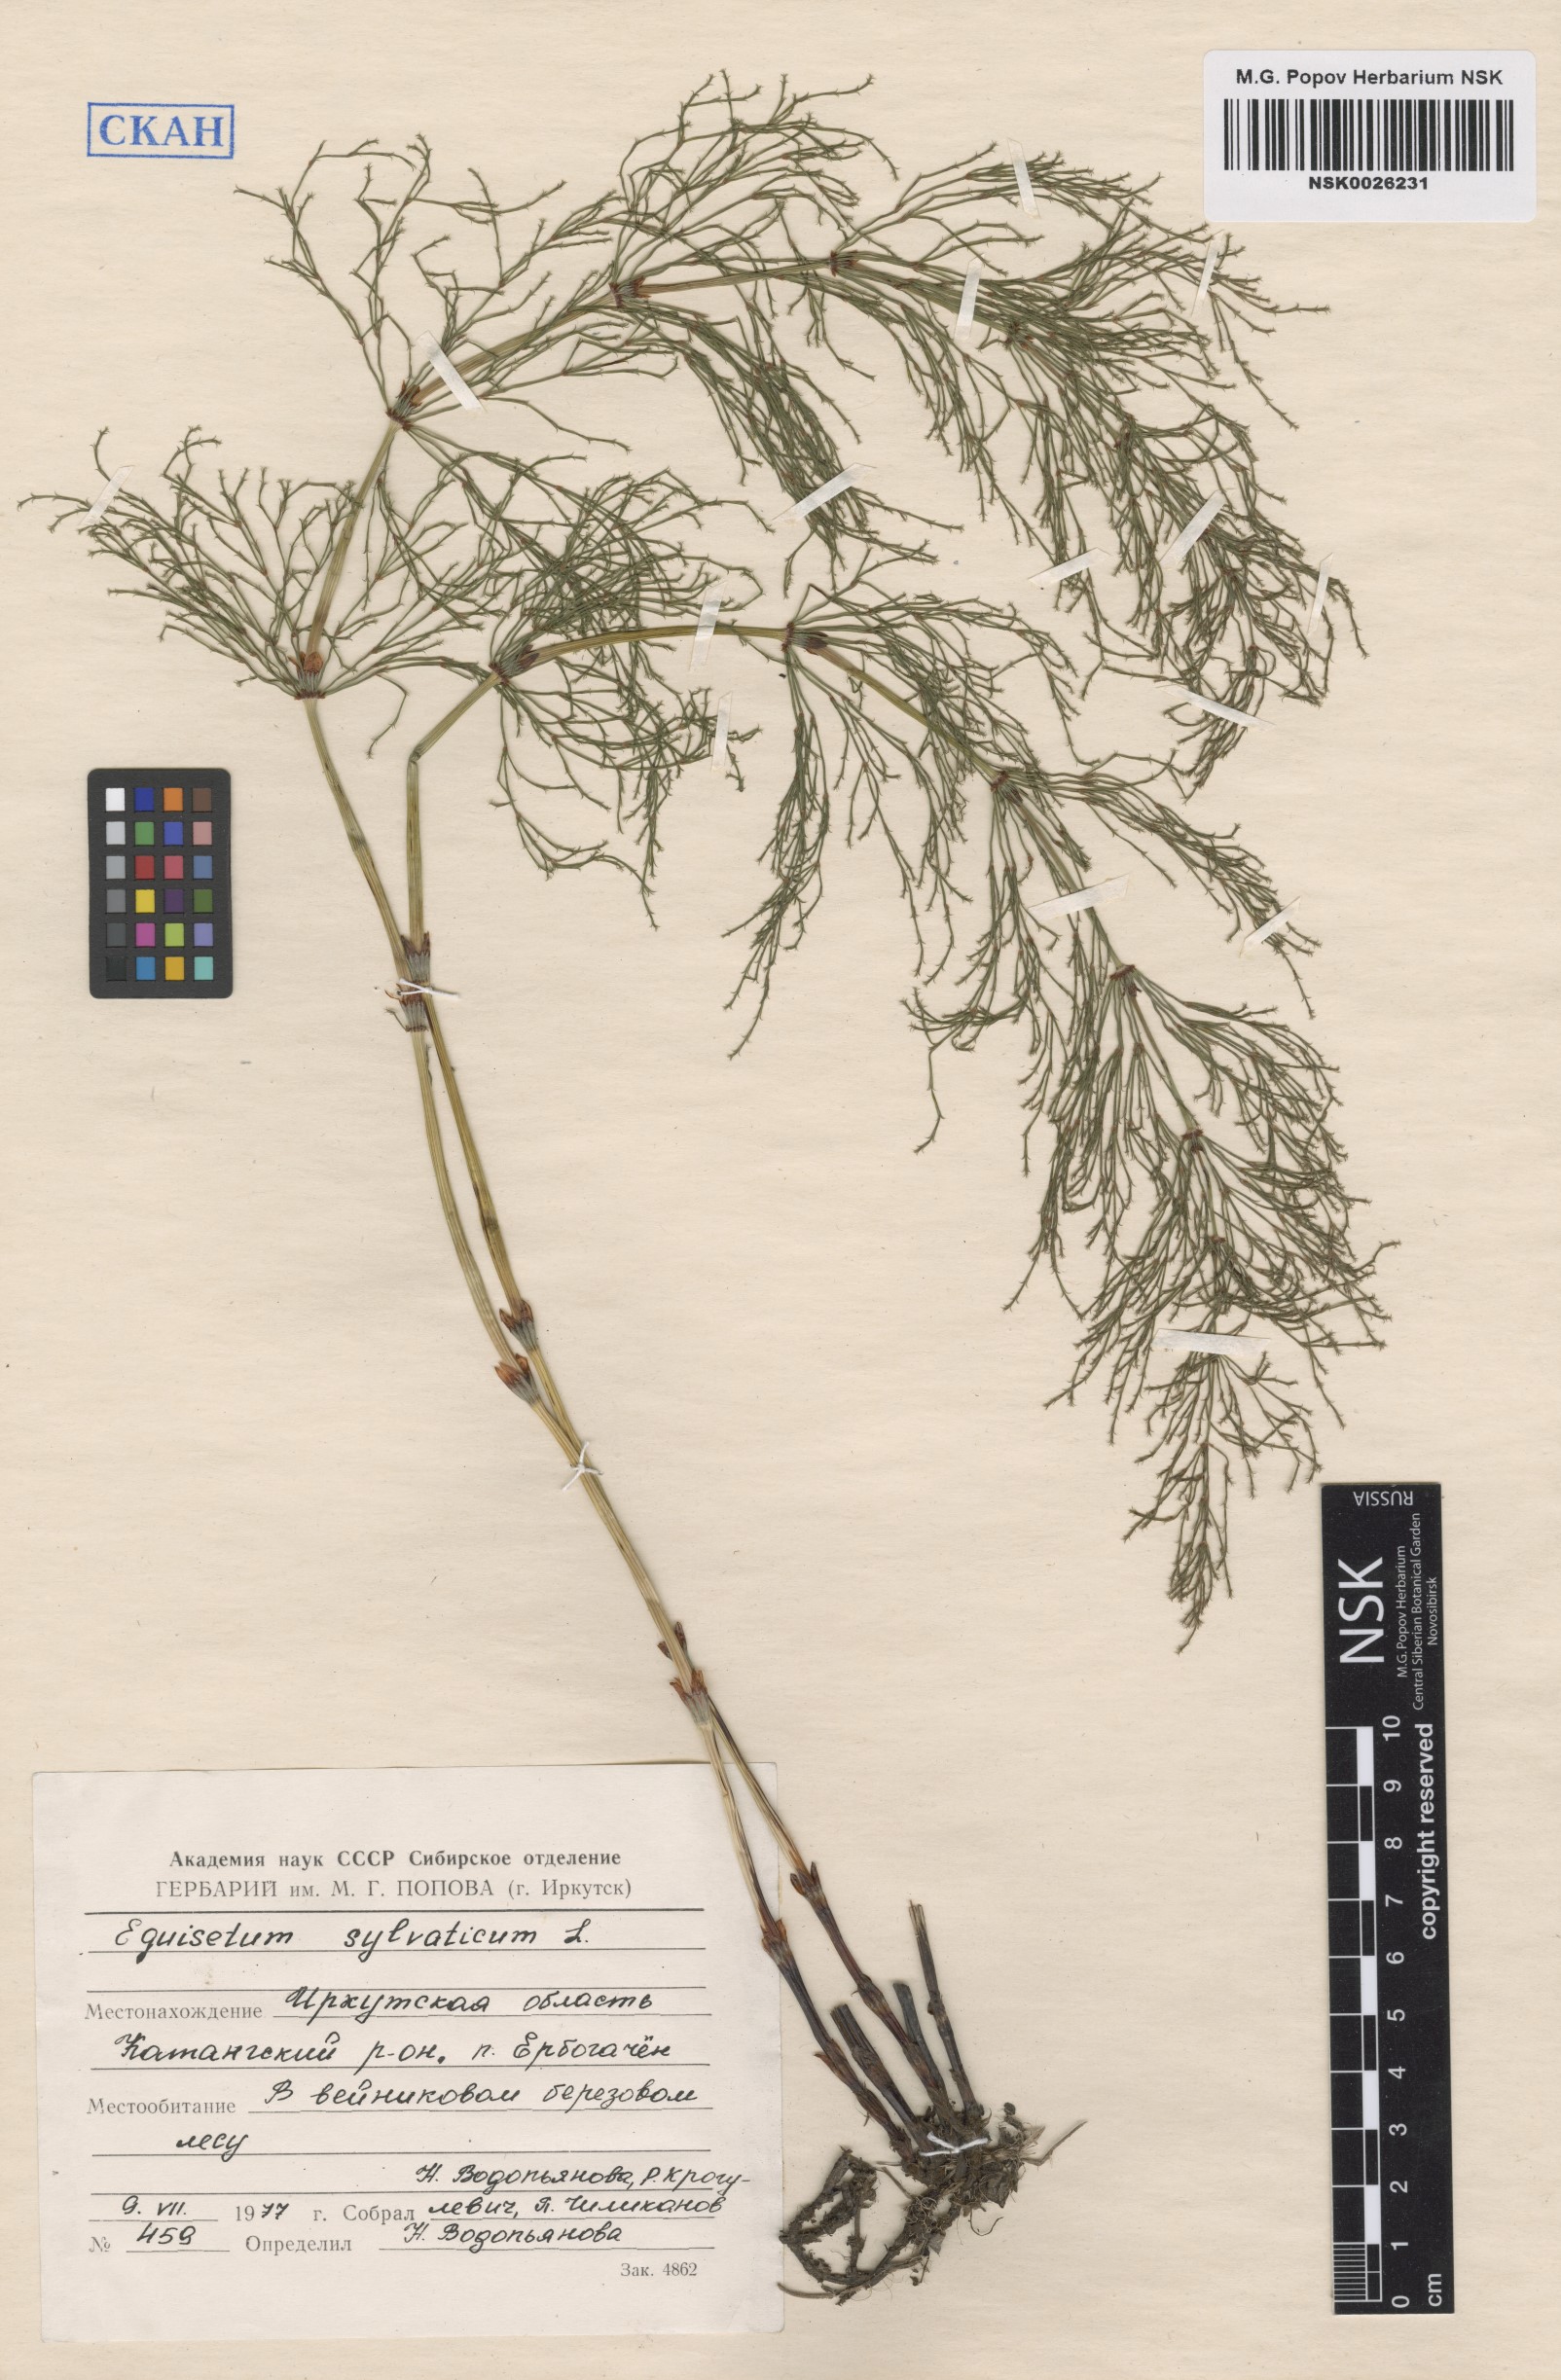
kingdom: Plantae
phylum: Tracheophyta
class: Polypodiopsida
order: Equisetales
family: Equisetaceae
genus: Equisetum
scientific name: Equisetum sylvaticum
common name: Wood horsetail
